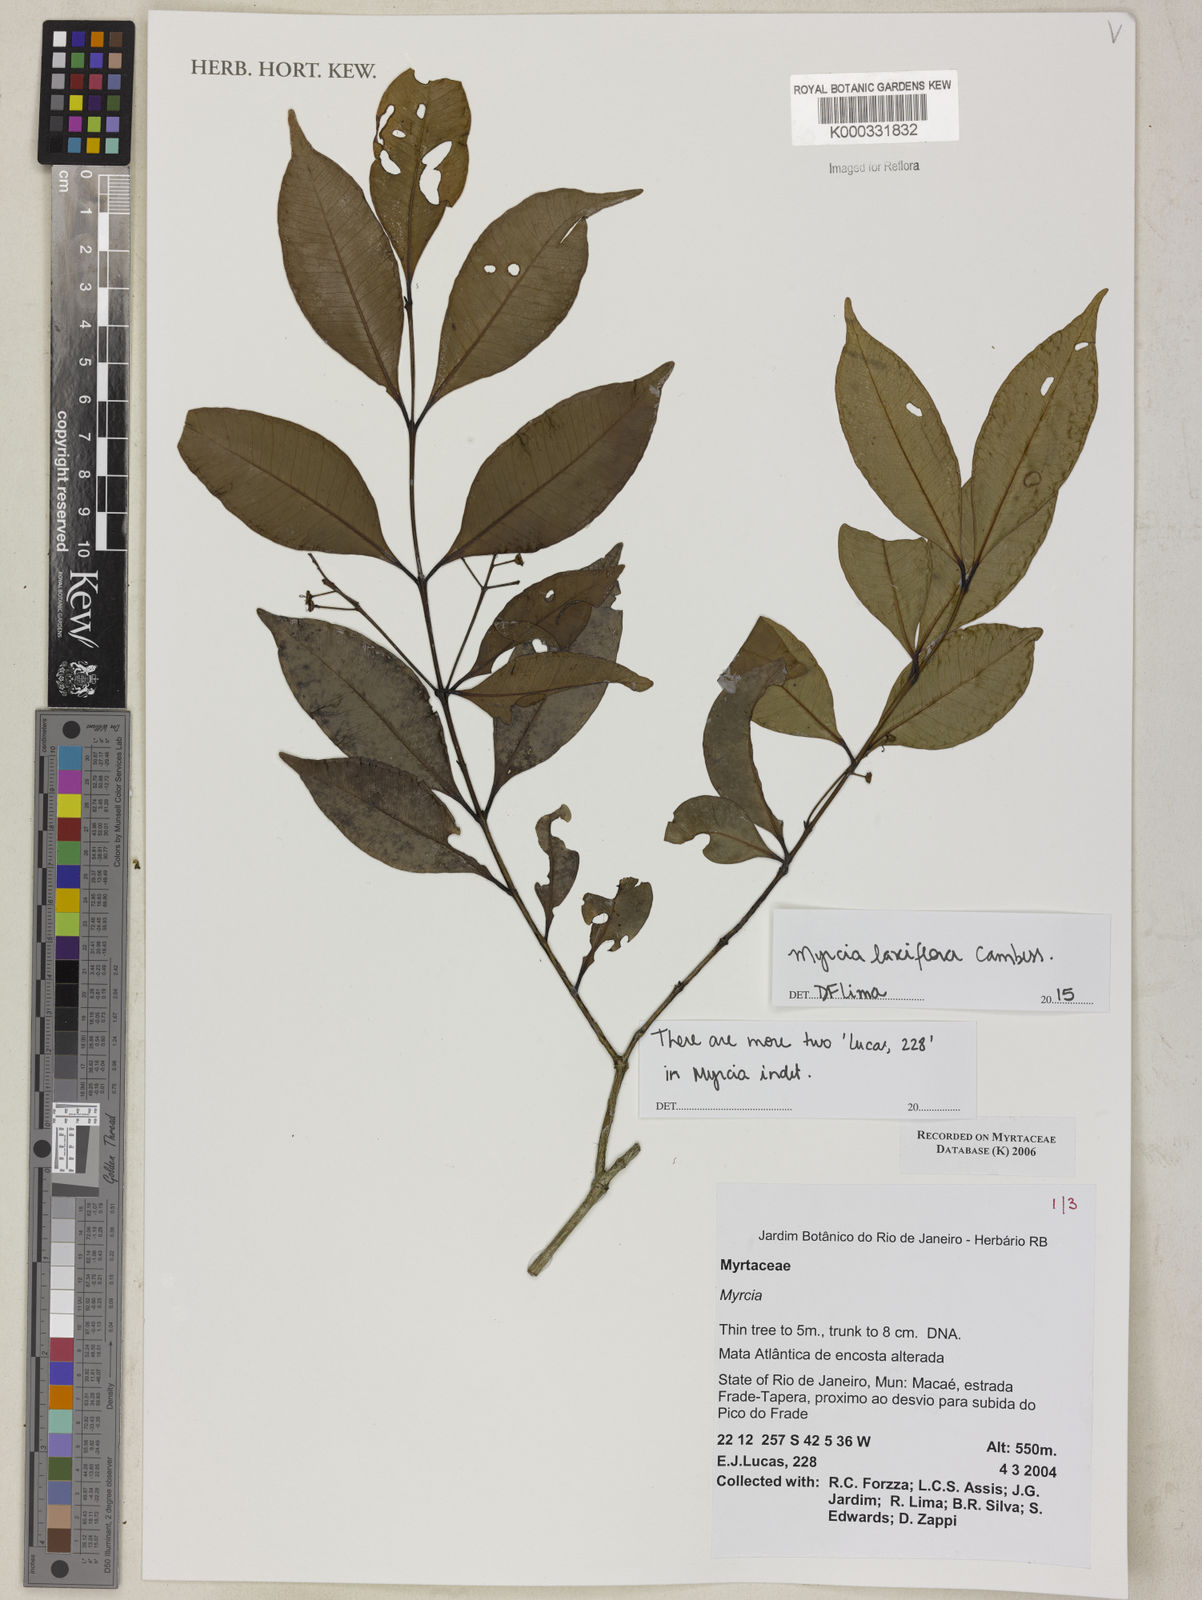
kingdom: Plantae
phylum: Tracheophyta
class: Magnoliopsida
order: Myrtales
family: Myrtaceae
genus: Myrcia
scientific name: Myrcia
